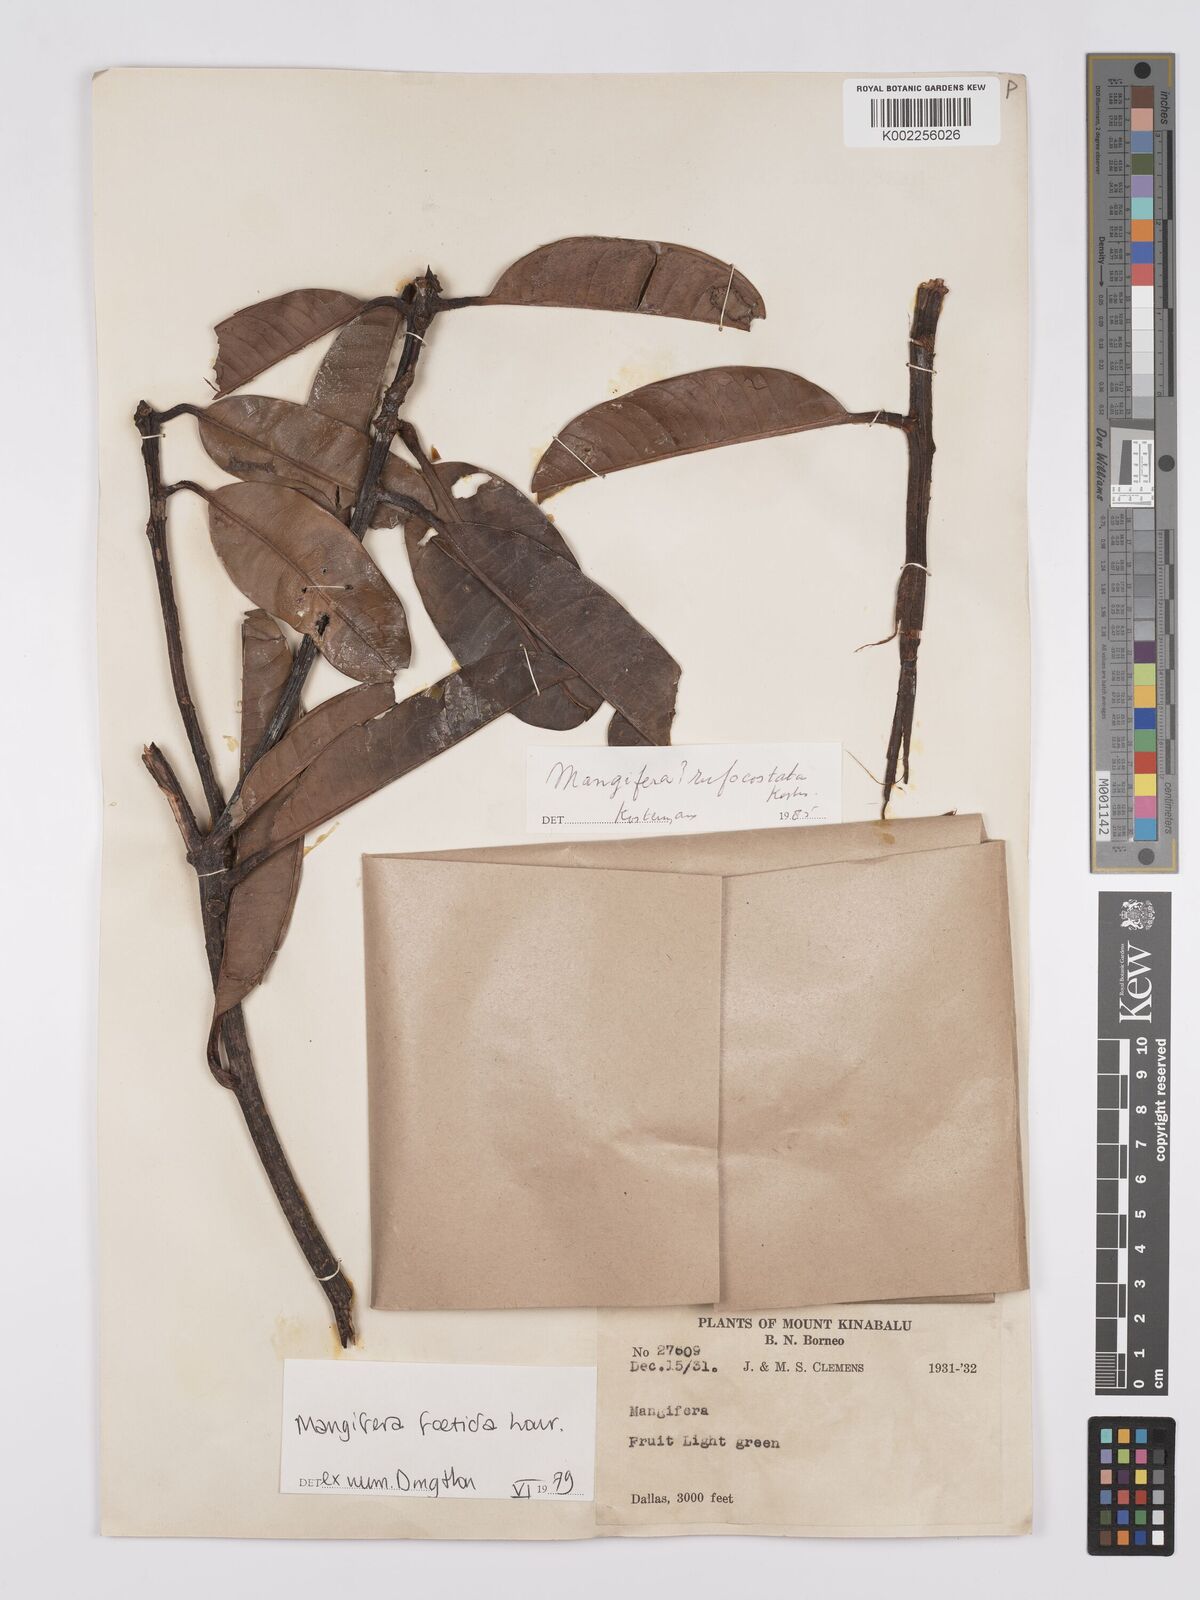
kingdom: Plantae
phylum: Tracheophyta
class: Magnoliopsida
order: Sapindales
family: Anacardiaceae
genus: Mangifera
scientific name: Mangifera
